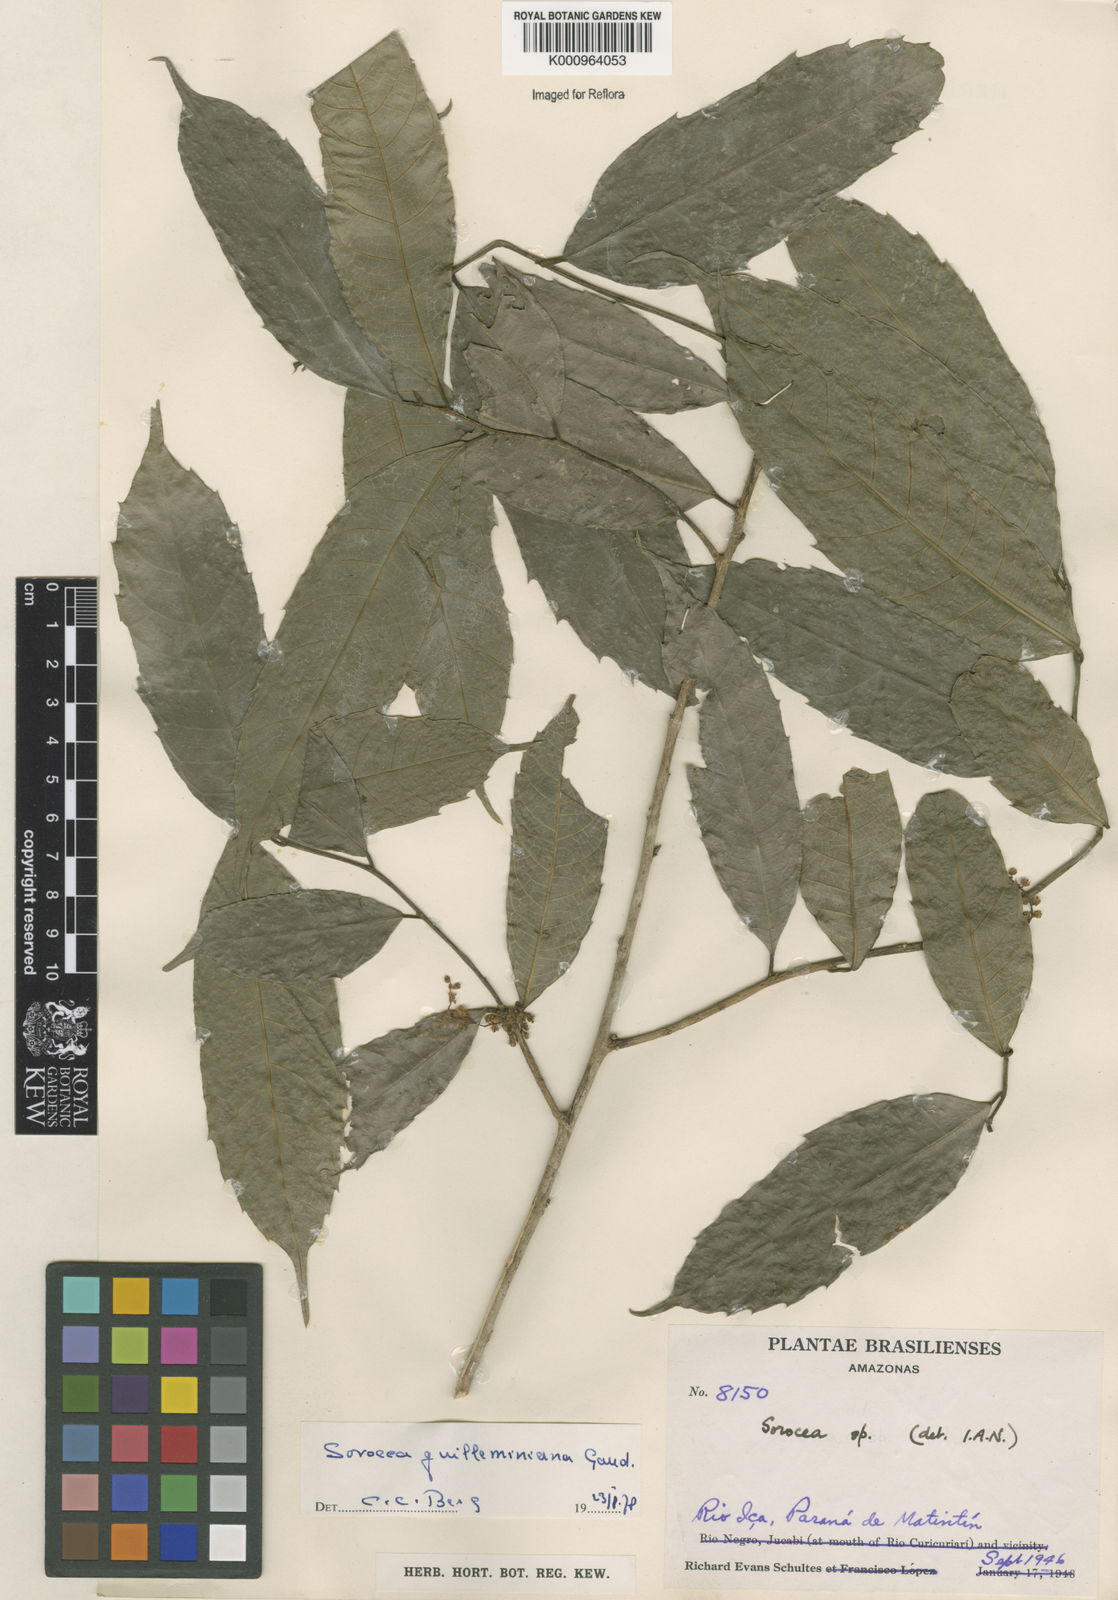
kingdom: Plantae
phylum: Tracheophyta
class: Magnoliopsida
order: Rosales
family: Moraceae
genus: Sorocea
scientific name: Sorocea guilleminiana
